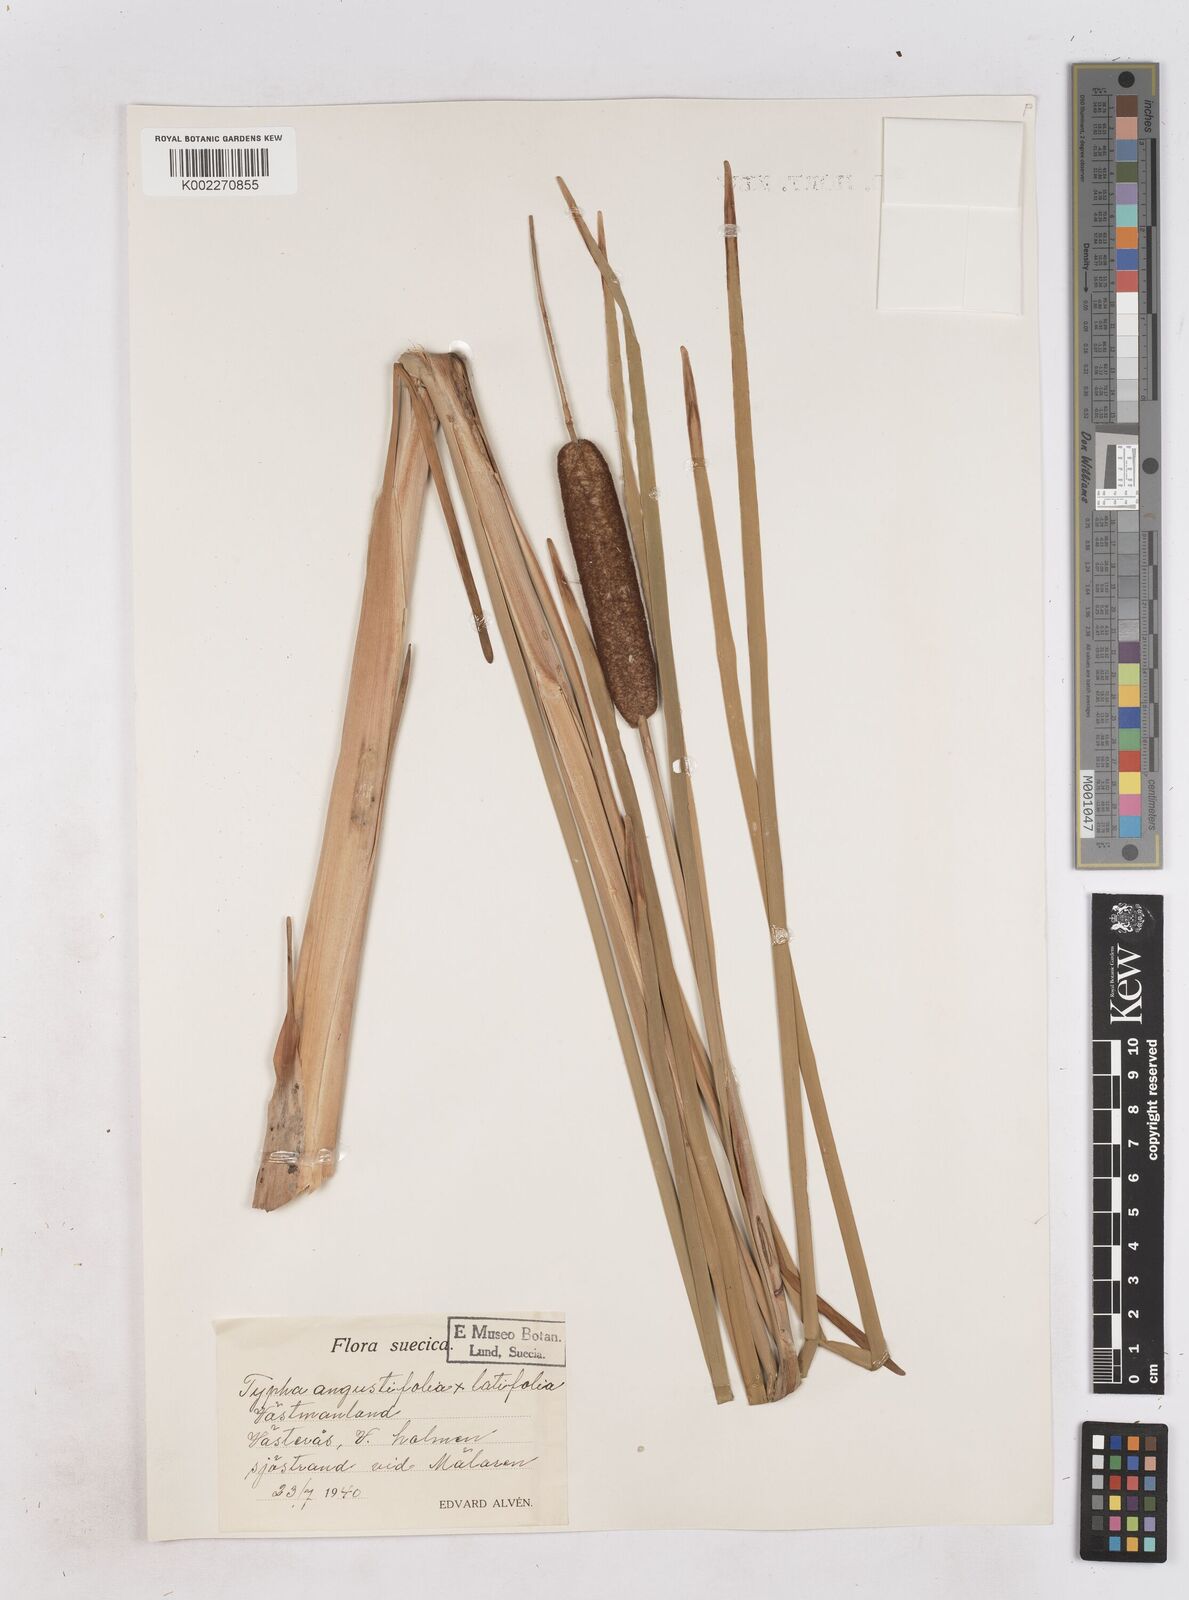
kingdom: Plantae
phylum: Tracheophyta
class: Liliopsida
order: Poales
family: Typhaceae
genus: Typha
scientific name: Typha
